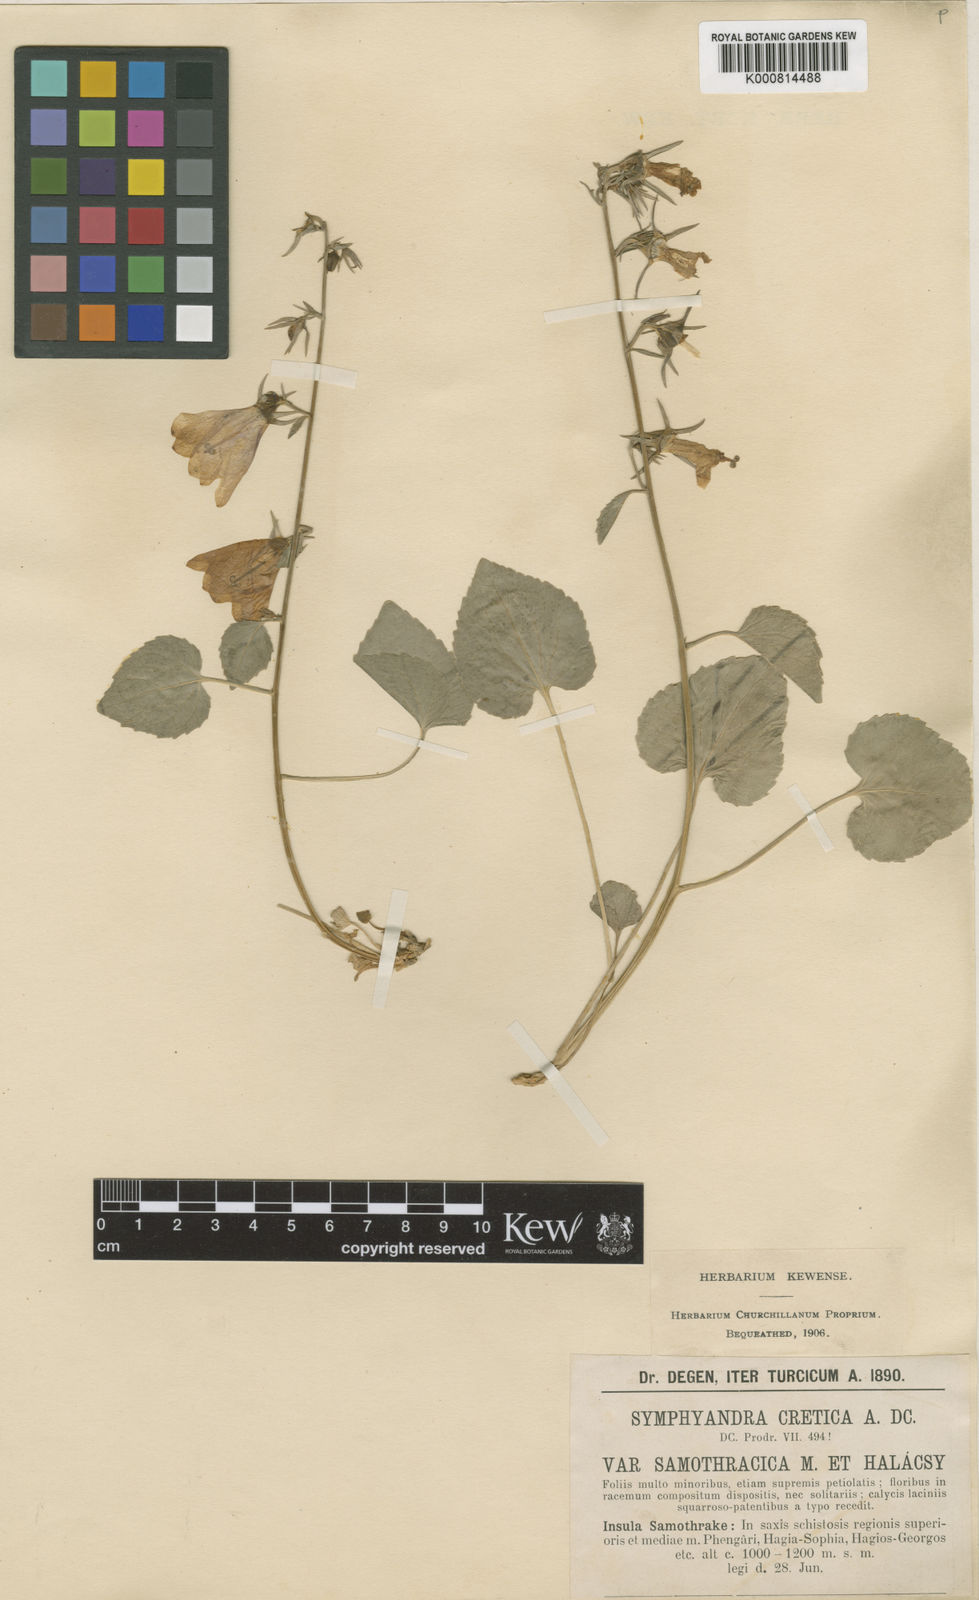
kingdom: Plantae
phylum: Tracheophyta
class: Magnoliopsida
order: Asterales
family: Campanulaceae
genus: Campanula
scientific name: Campanula cretica
